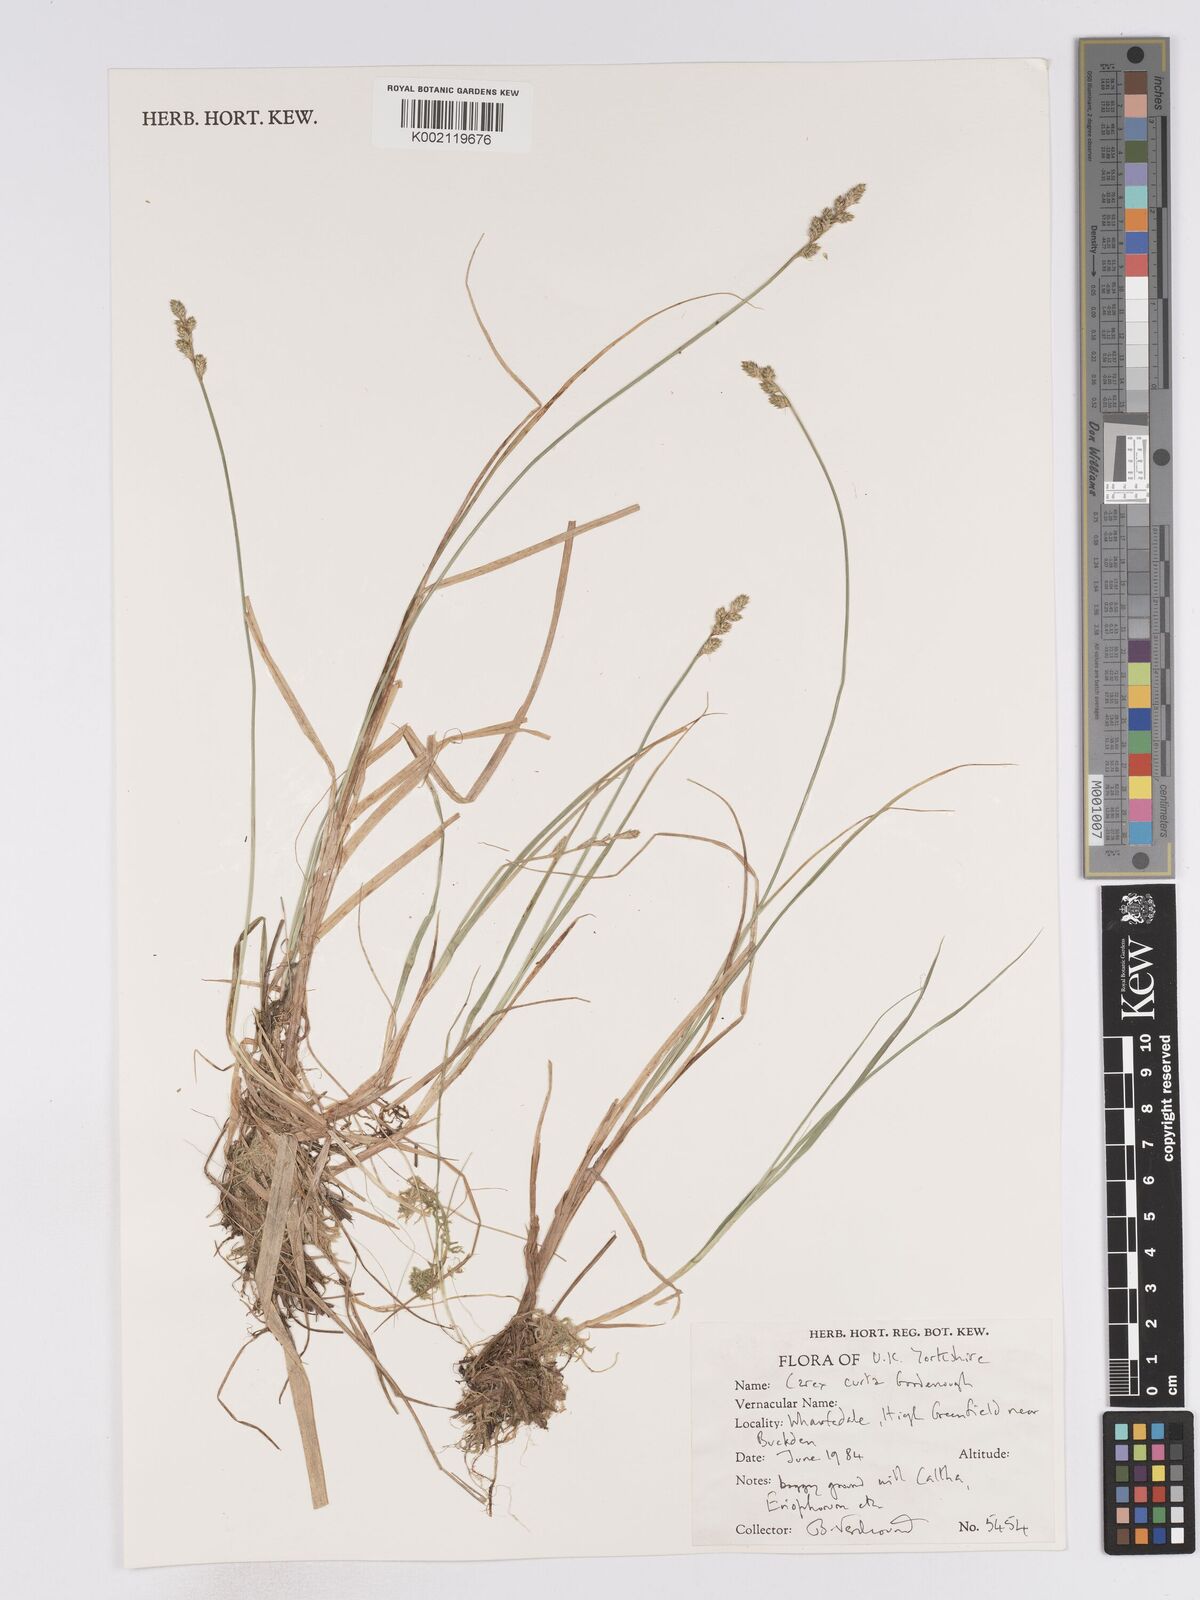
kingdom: Plantae
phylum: Tracheophyta
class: Liliopsida
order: Poales
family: Cyperaceae
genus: Carex
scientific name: Carex curta
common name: White sedge
